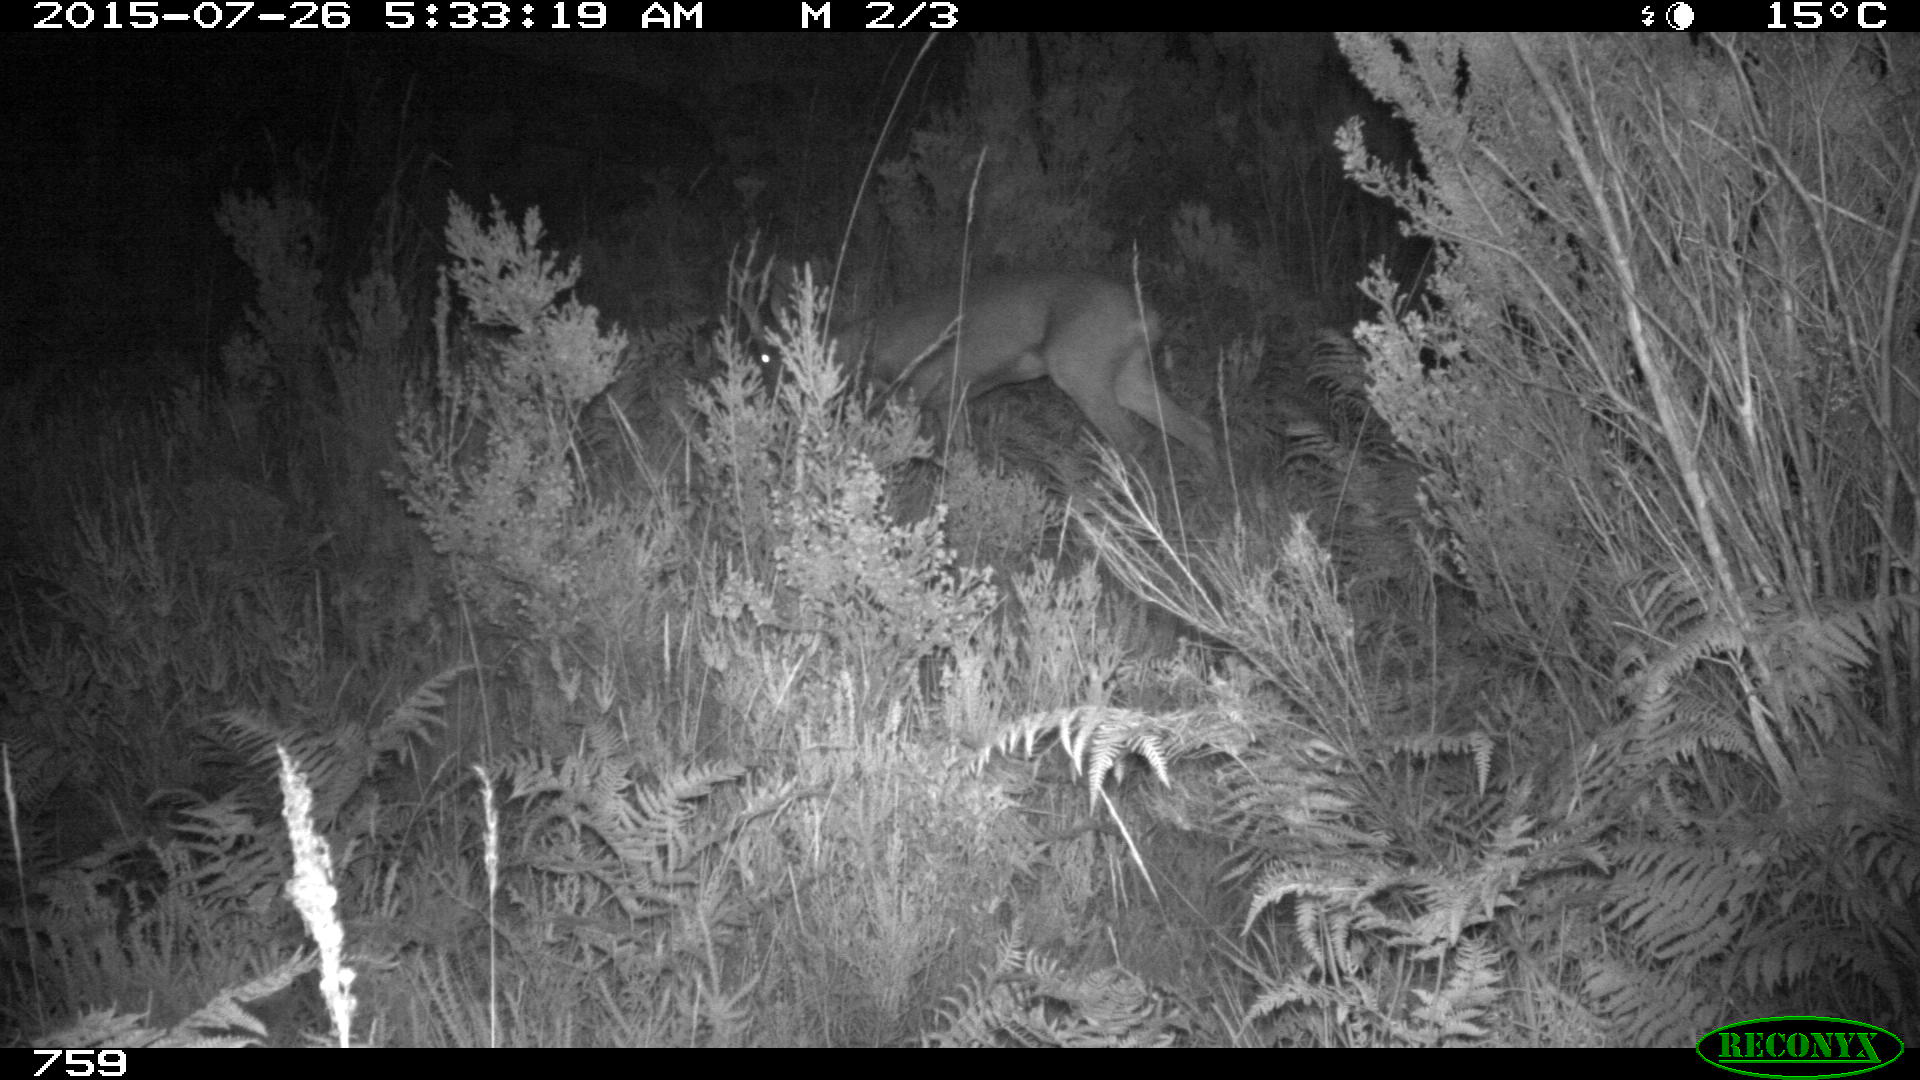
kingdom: Animalia
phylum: Chordata
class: Mammalia
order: Artiodactyla
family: Cervidae
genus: Capreolus
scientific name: Capreolus capreolus
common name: Western roe deer
